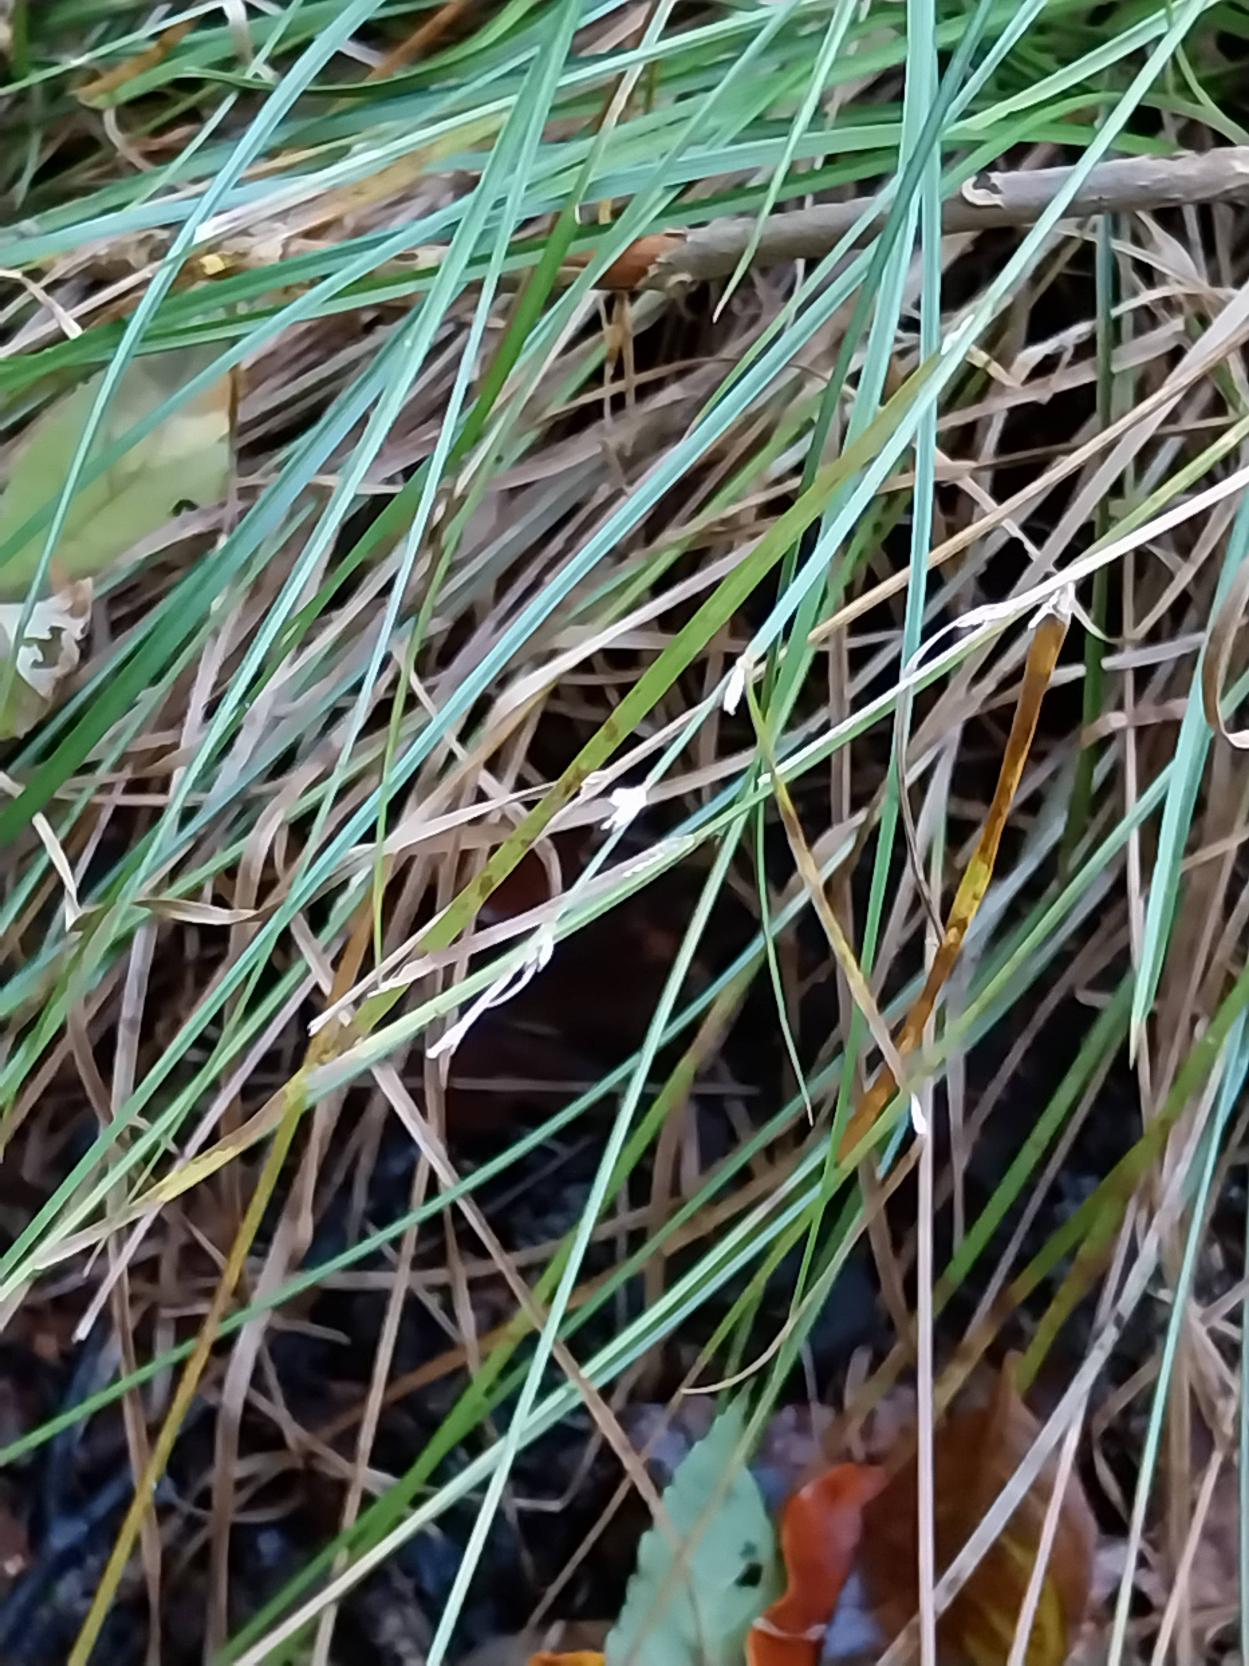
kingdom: Plantae
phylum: Tracheophyta
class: Liliopsida
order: Poales
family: Cyperaceae
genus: Carex
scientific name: Carex remota
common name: Akselblomstret star
